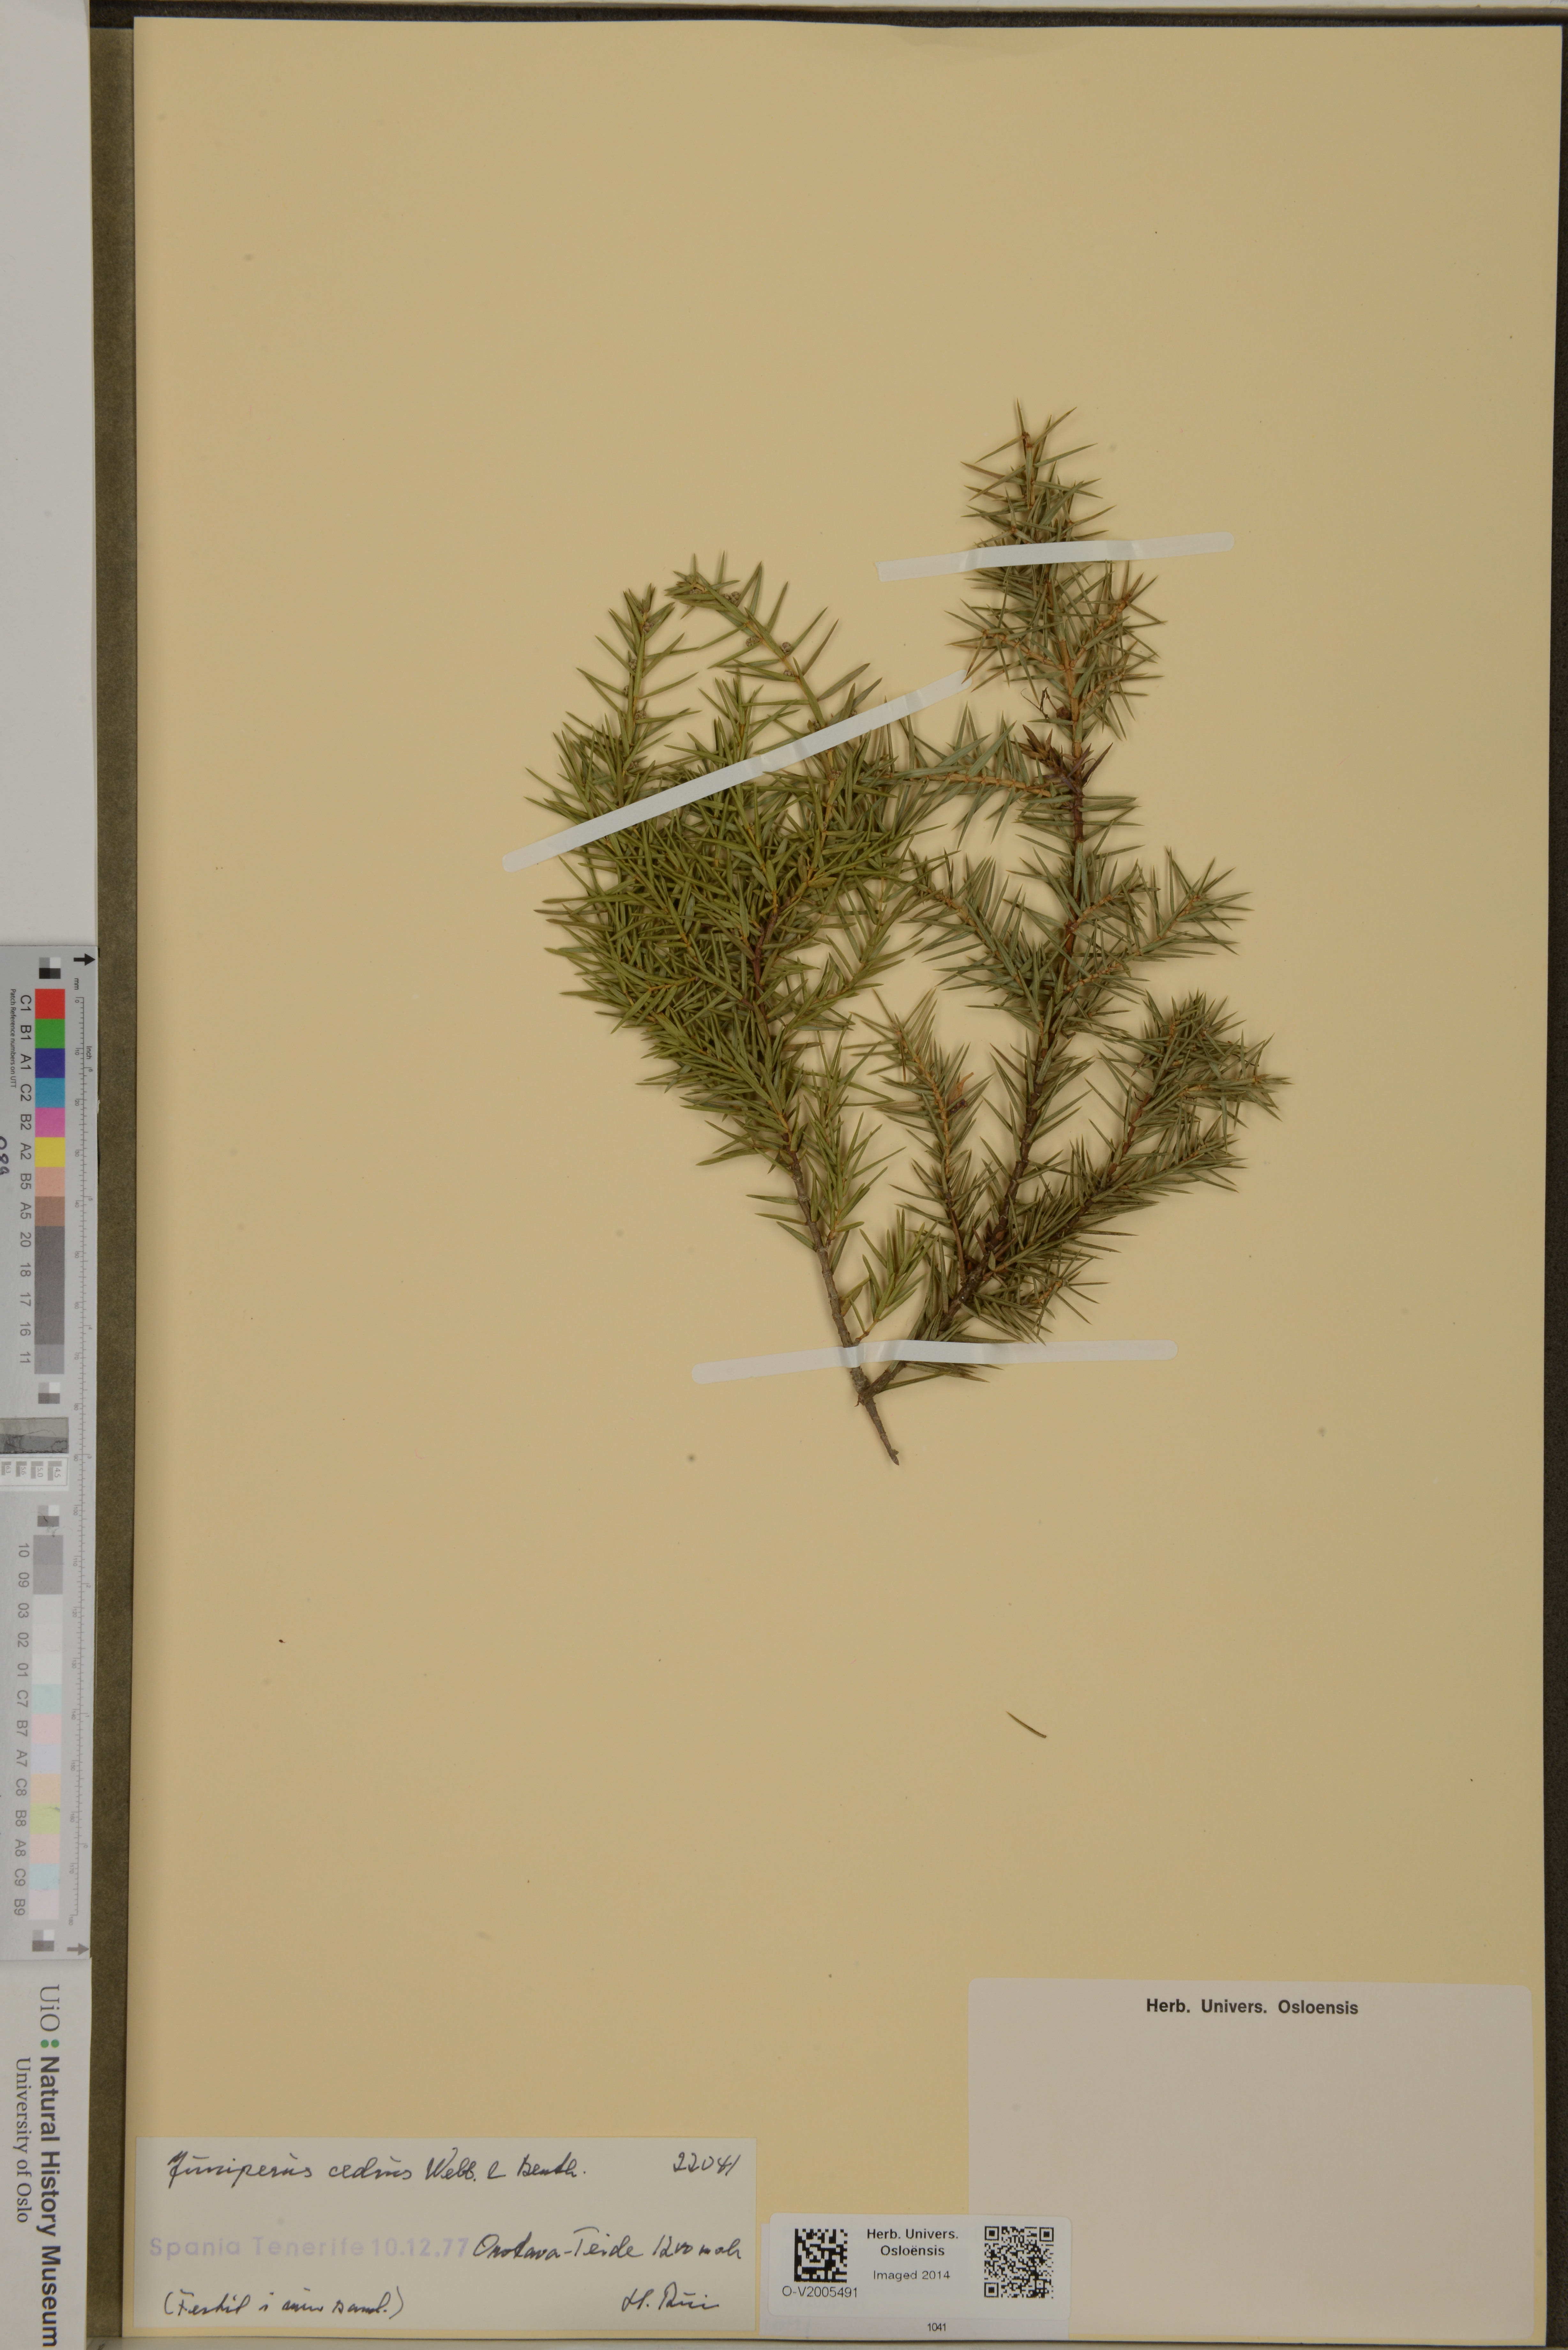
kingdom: Plantae
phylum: Tracheophyta
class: Pinopsida
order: Pinales
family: Cupressaceae
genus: Juniperus
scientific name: Juniperus cedrus
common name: Canary islands juniper
